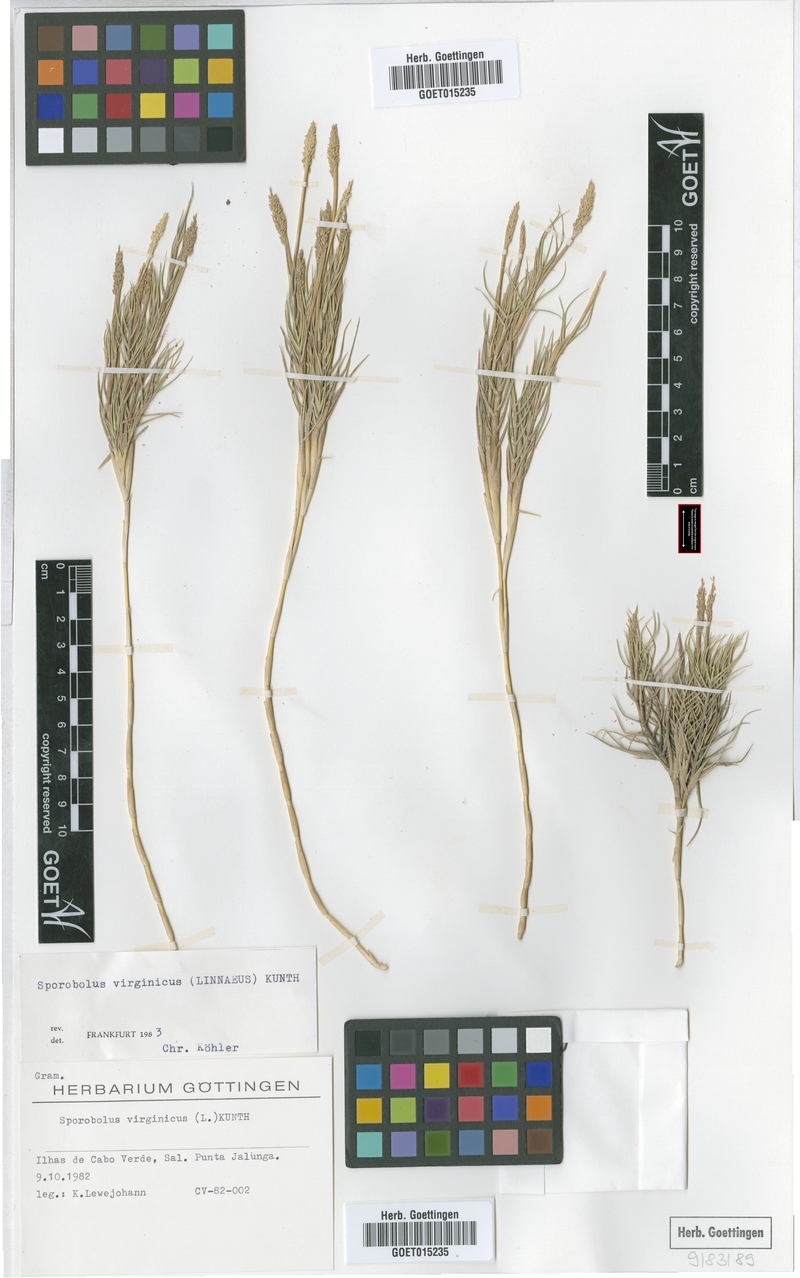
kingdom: Plantae
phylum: Tracheophyta
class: Liliopsida
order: Poales
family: Poaceae
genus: Sporobolus
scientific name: Sporobolus virginicus
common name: Beach dropseed
